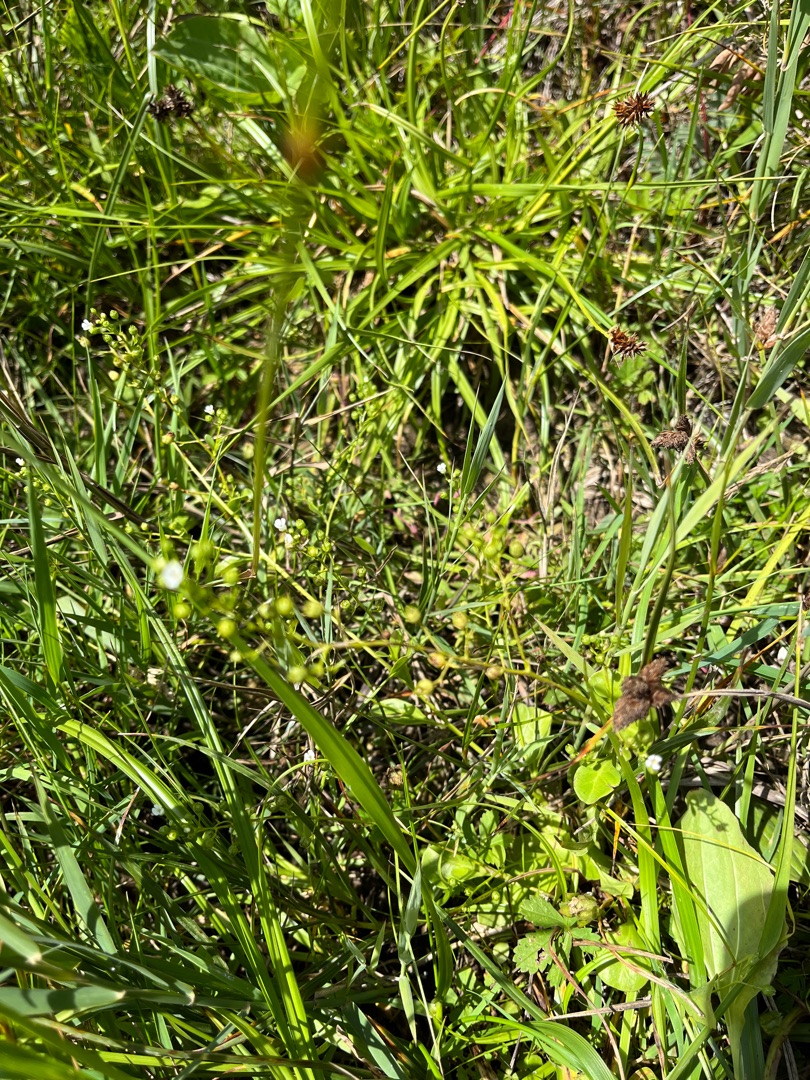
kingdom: Plantae
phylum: Tracheophyta
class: Magnoliopsida
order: Ericales
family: Primulaceae
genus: Samolus
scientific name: Samolus valerandi
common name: Samel
